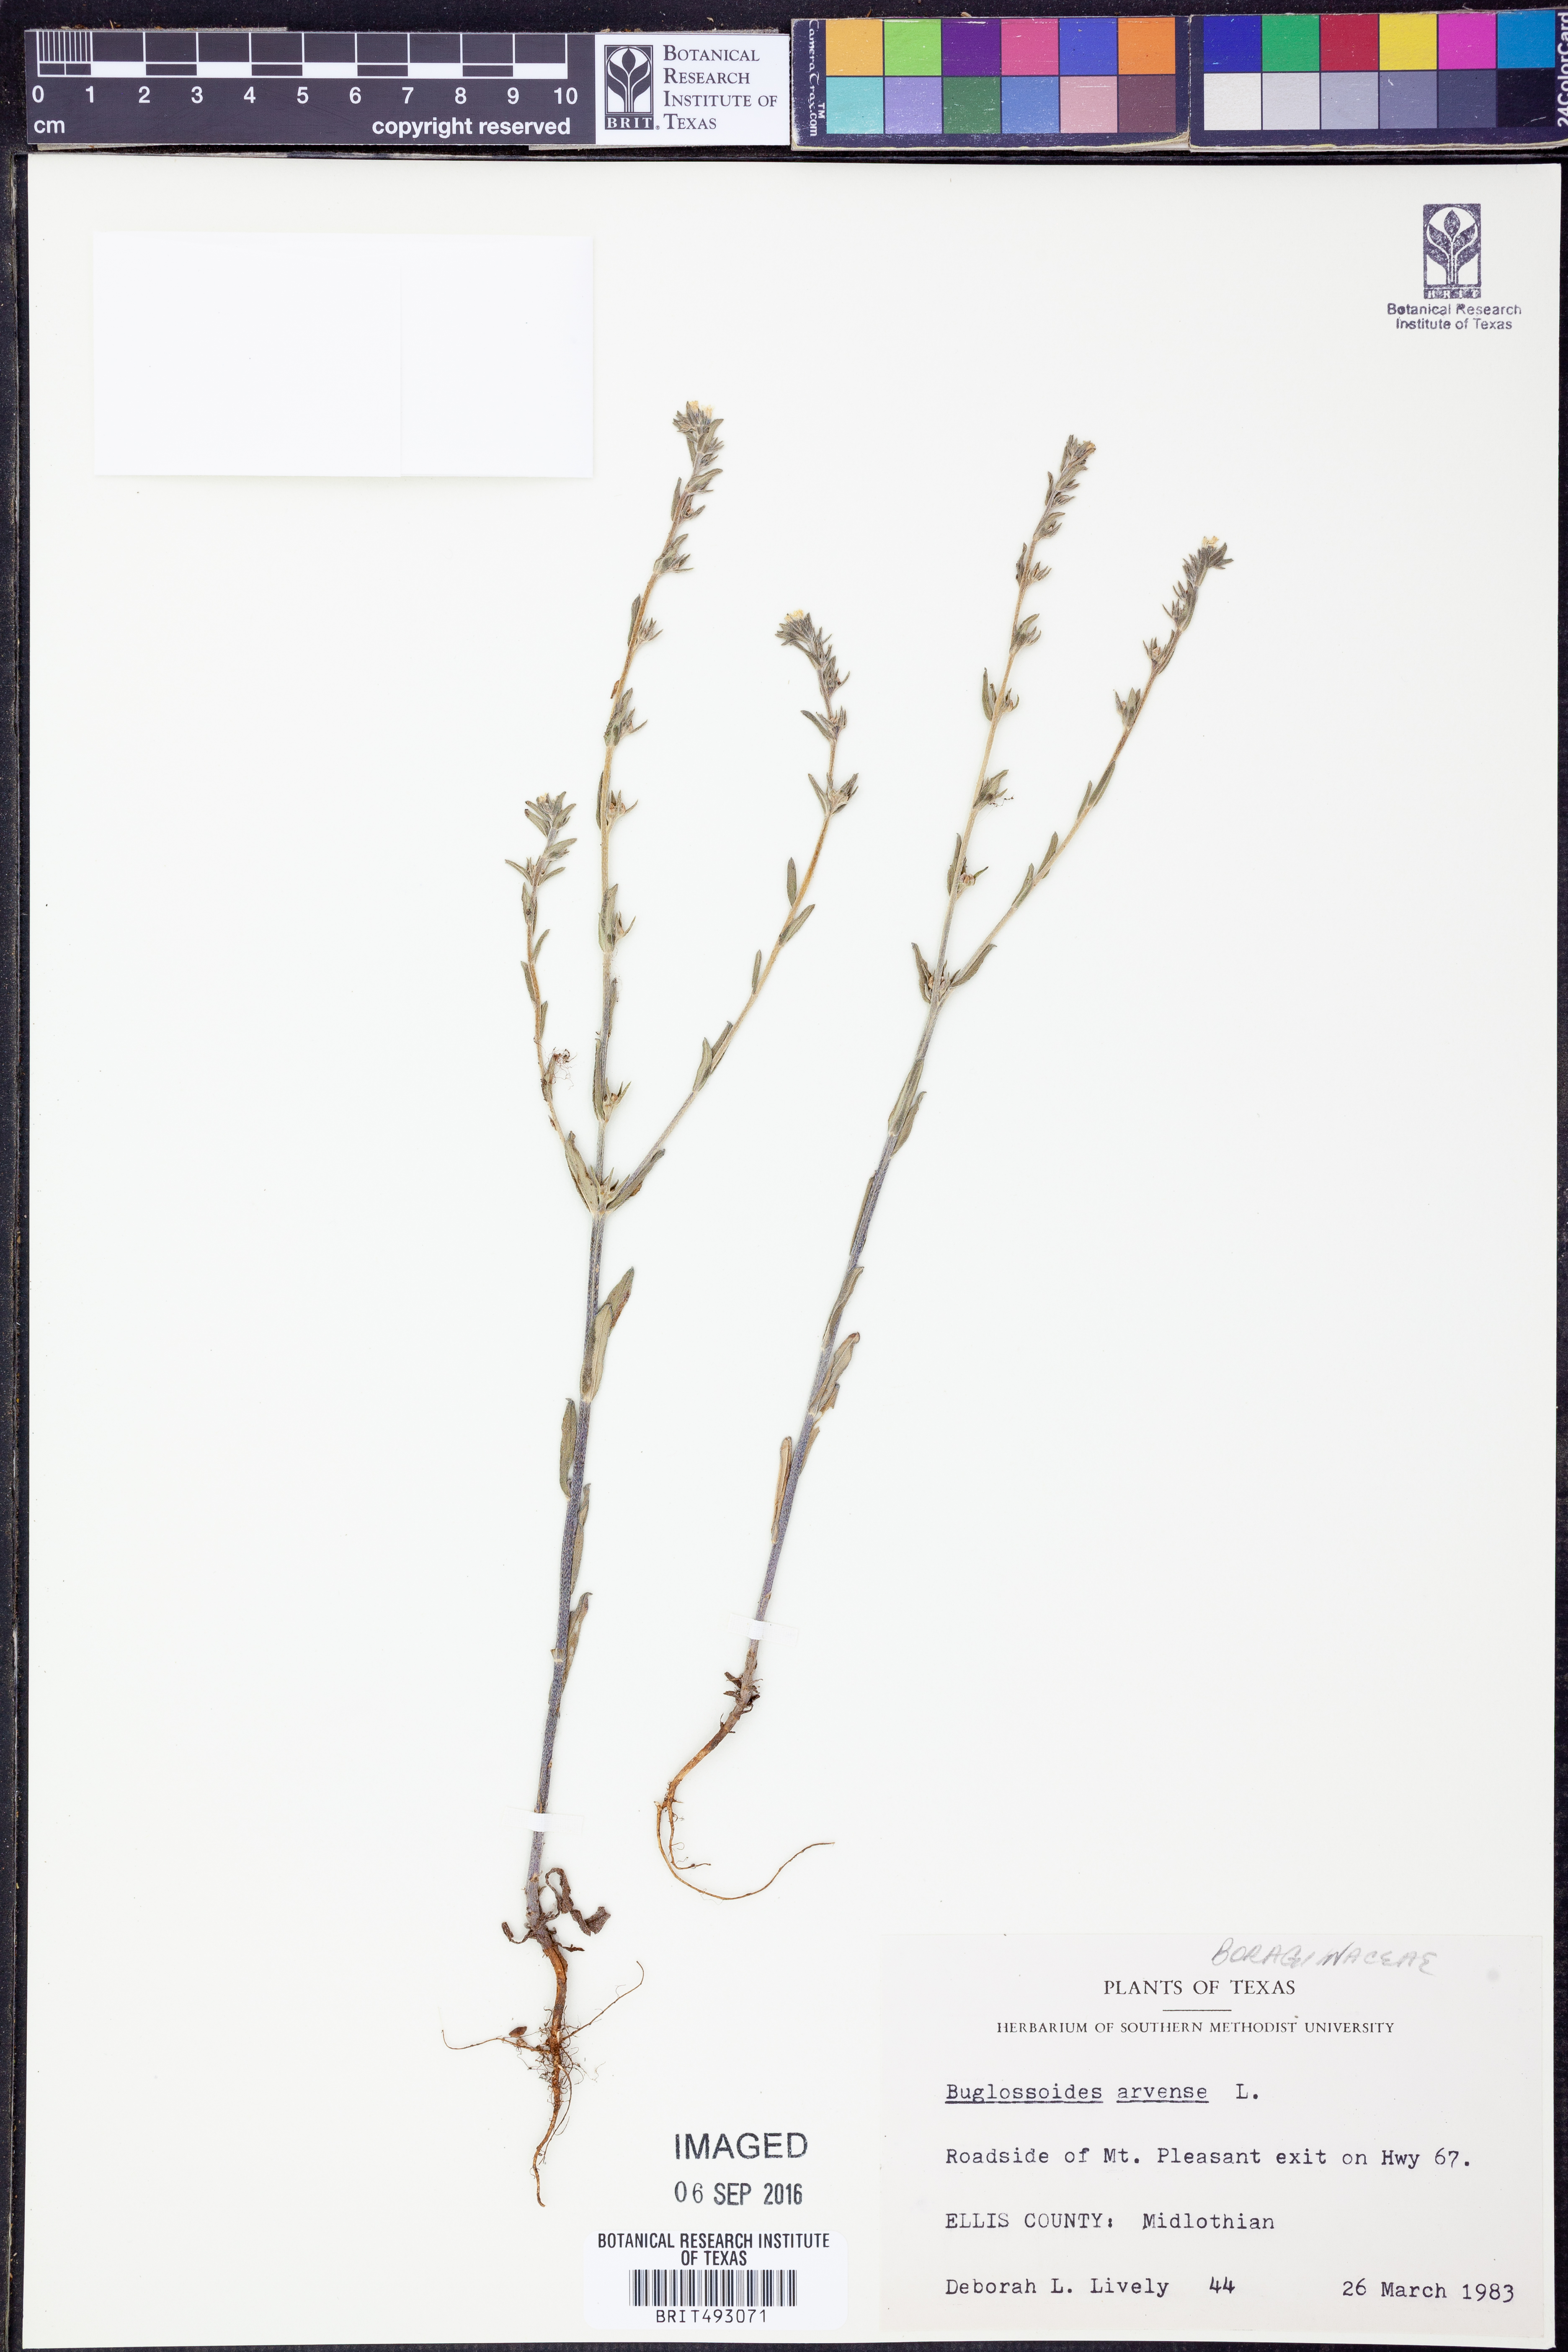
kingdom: Plantae
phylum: Tracheophyta
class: Magnoliopsida
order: Boraginales
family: Boraginaceae
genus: Buglossoides
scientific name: Buglossoides arvensis
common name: Corn gromwell
